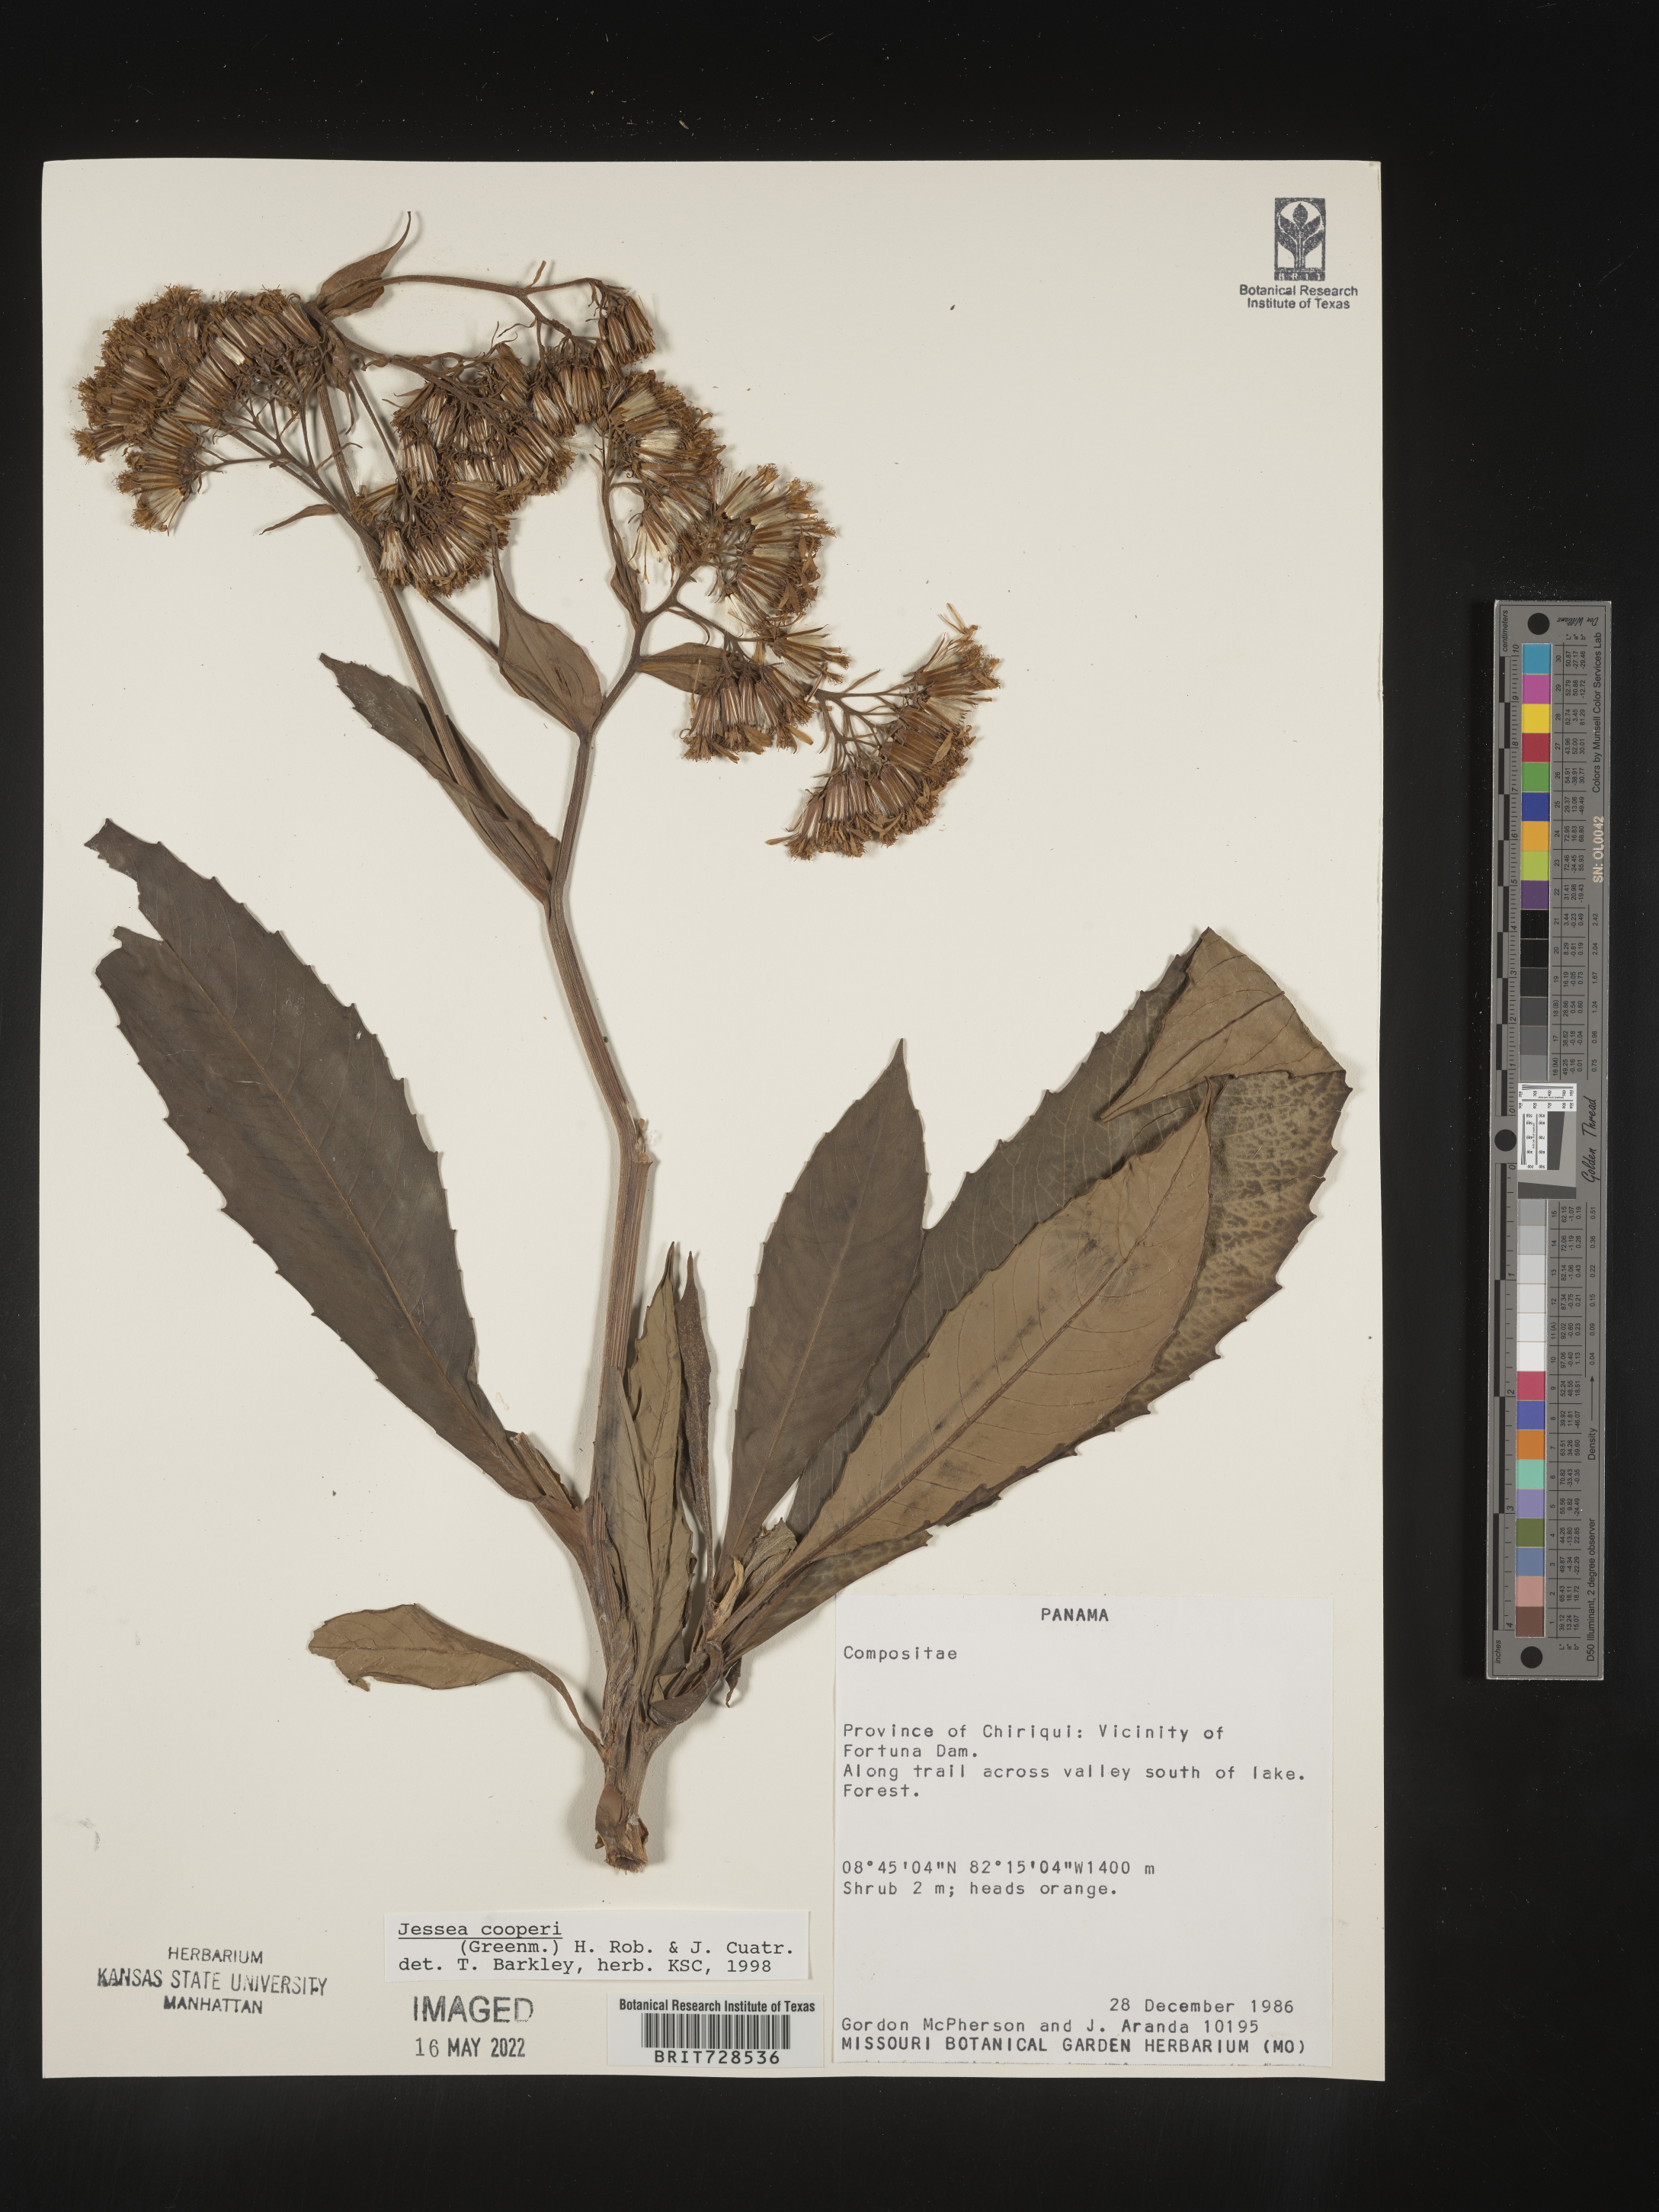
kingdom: Plantae
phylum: Tracheophyta
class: Magnoliopsida
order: Asterales
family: Asteraceae
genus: Jessea
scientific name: Jessea
